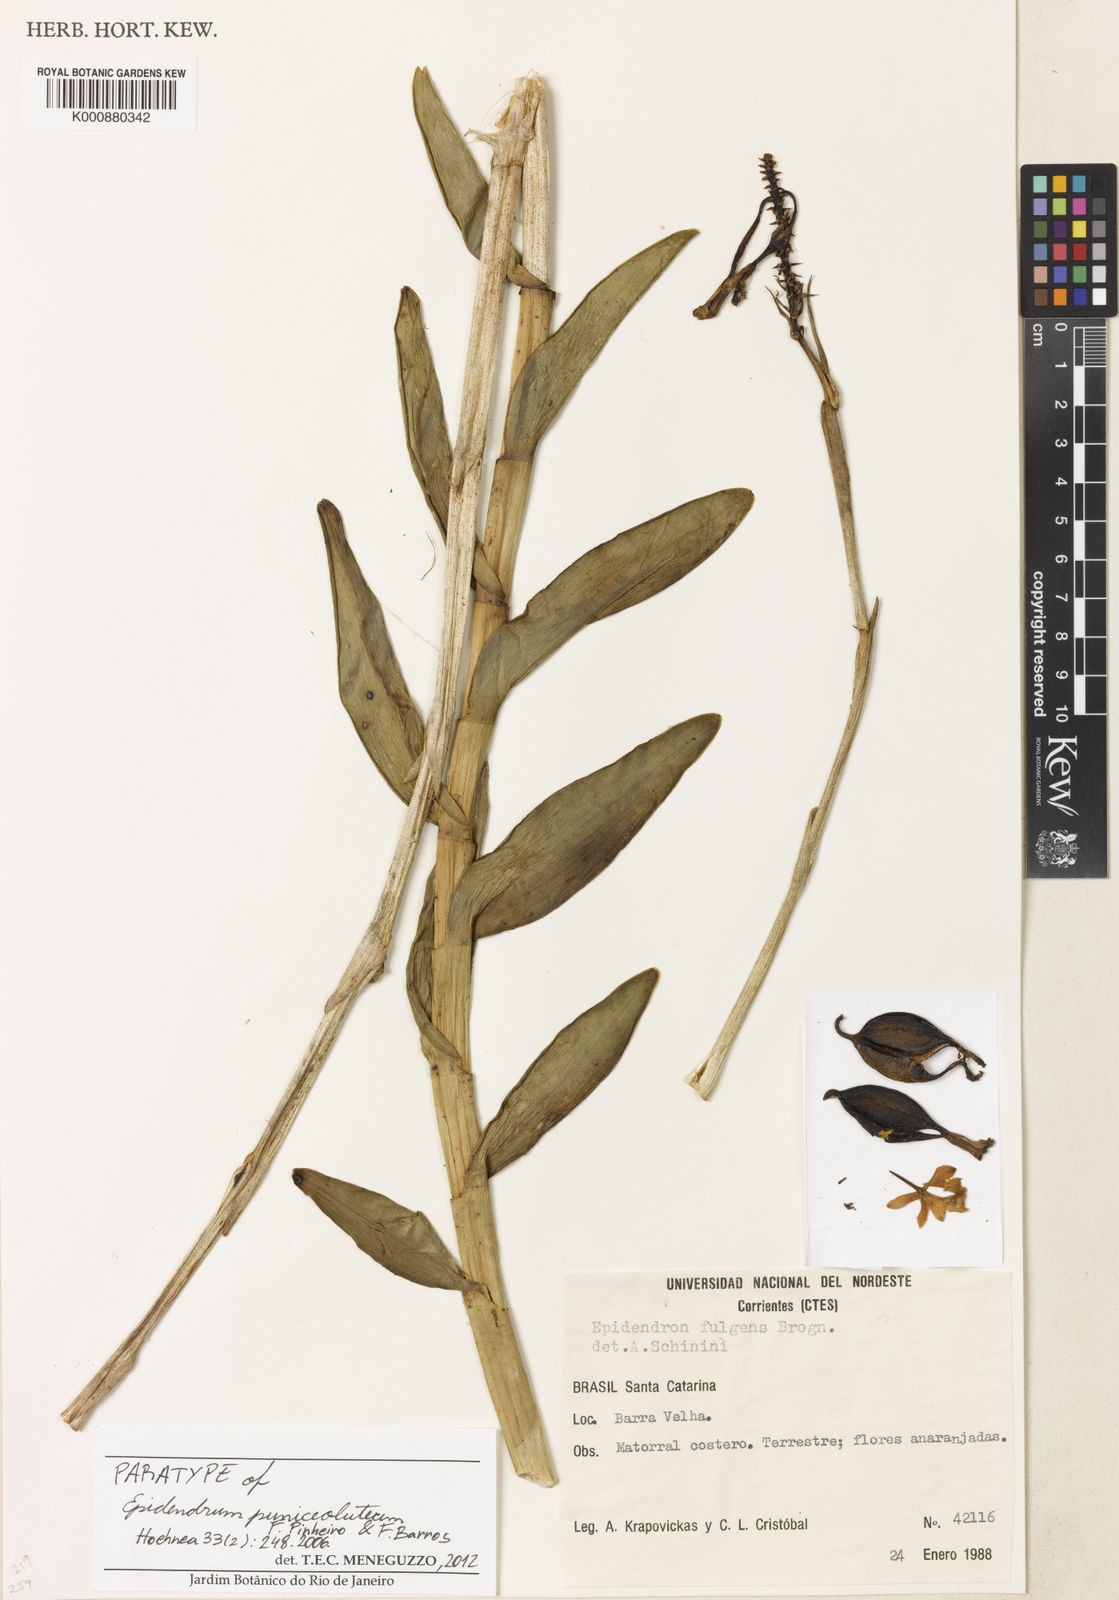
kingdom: Plantae
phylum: Tracheophyta
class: Liliopsida
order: Asparagales
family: Orchidaceae
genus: Epidendrum
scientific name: Epidendrum puniceoluteum
